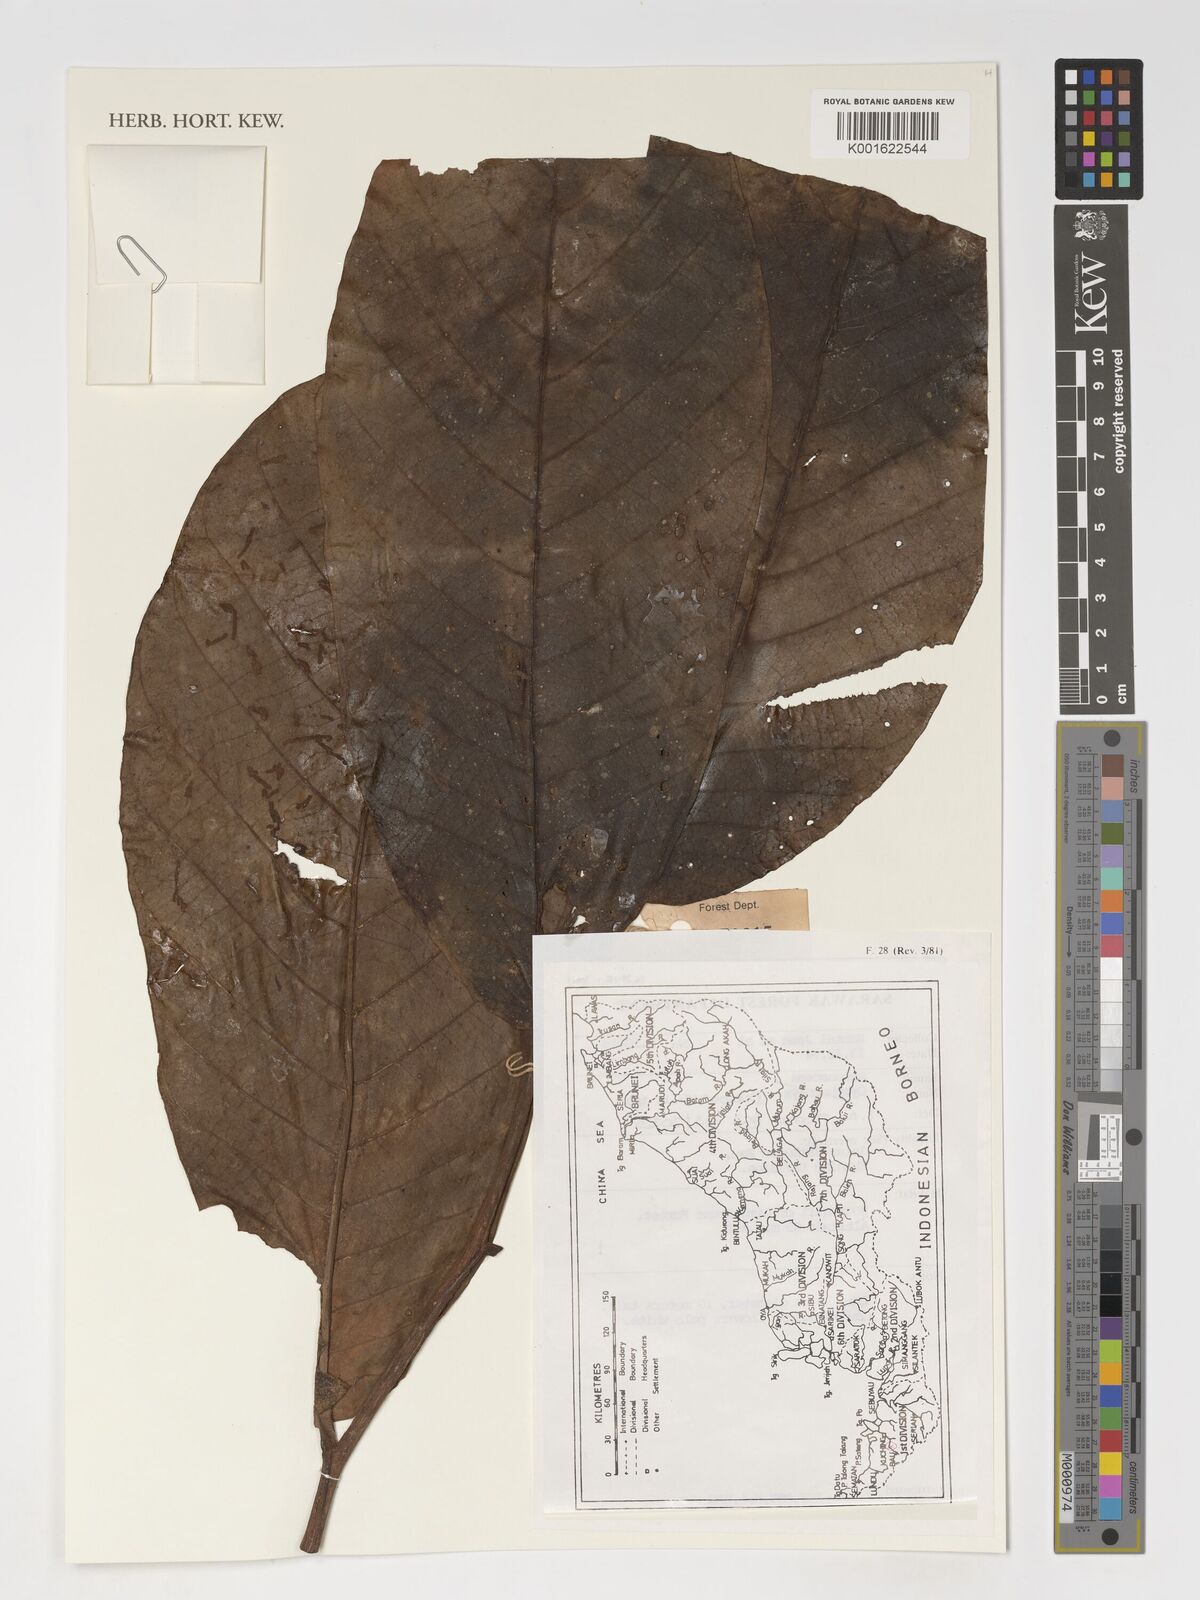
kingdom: Plantae
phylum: Tracheophyta
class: Magnoliopsida
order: Magnoliales
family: Annonaceae
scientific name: Annonaceae
